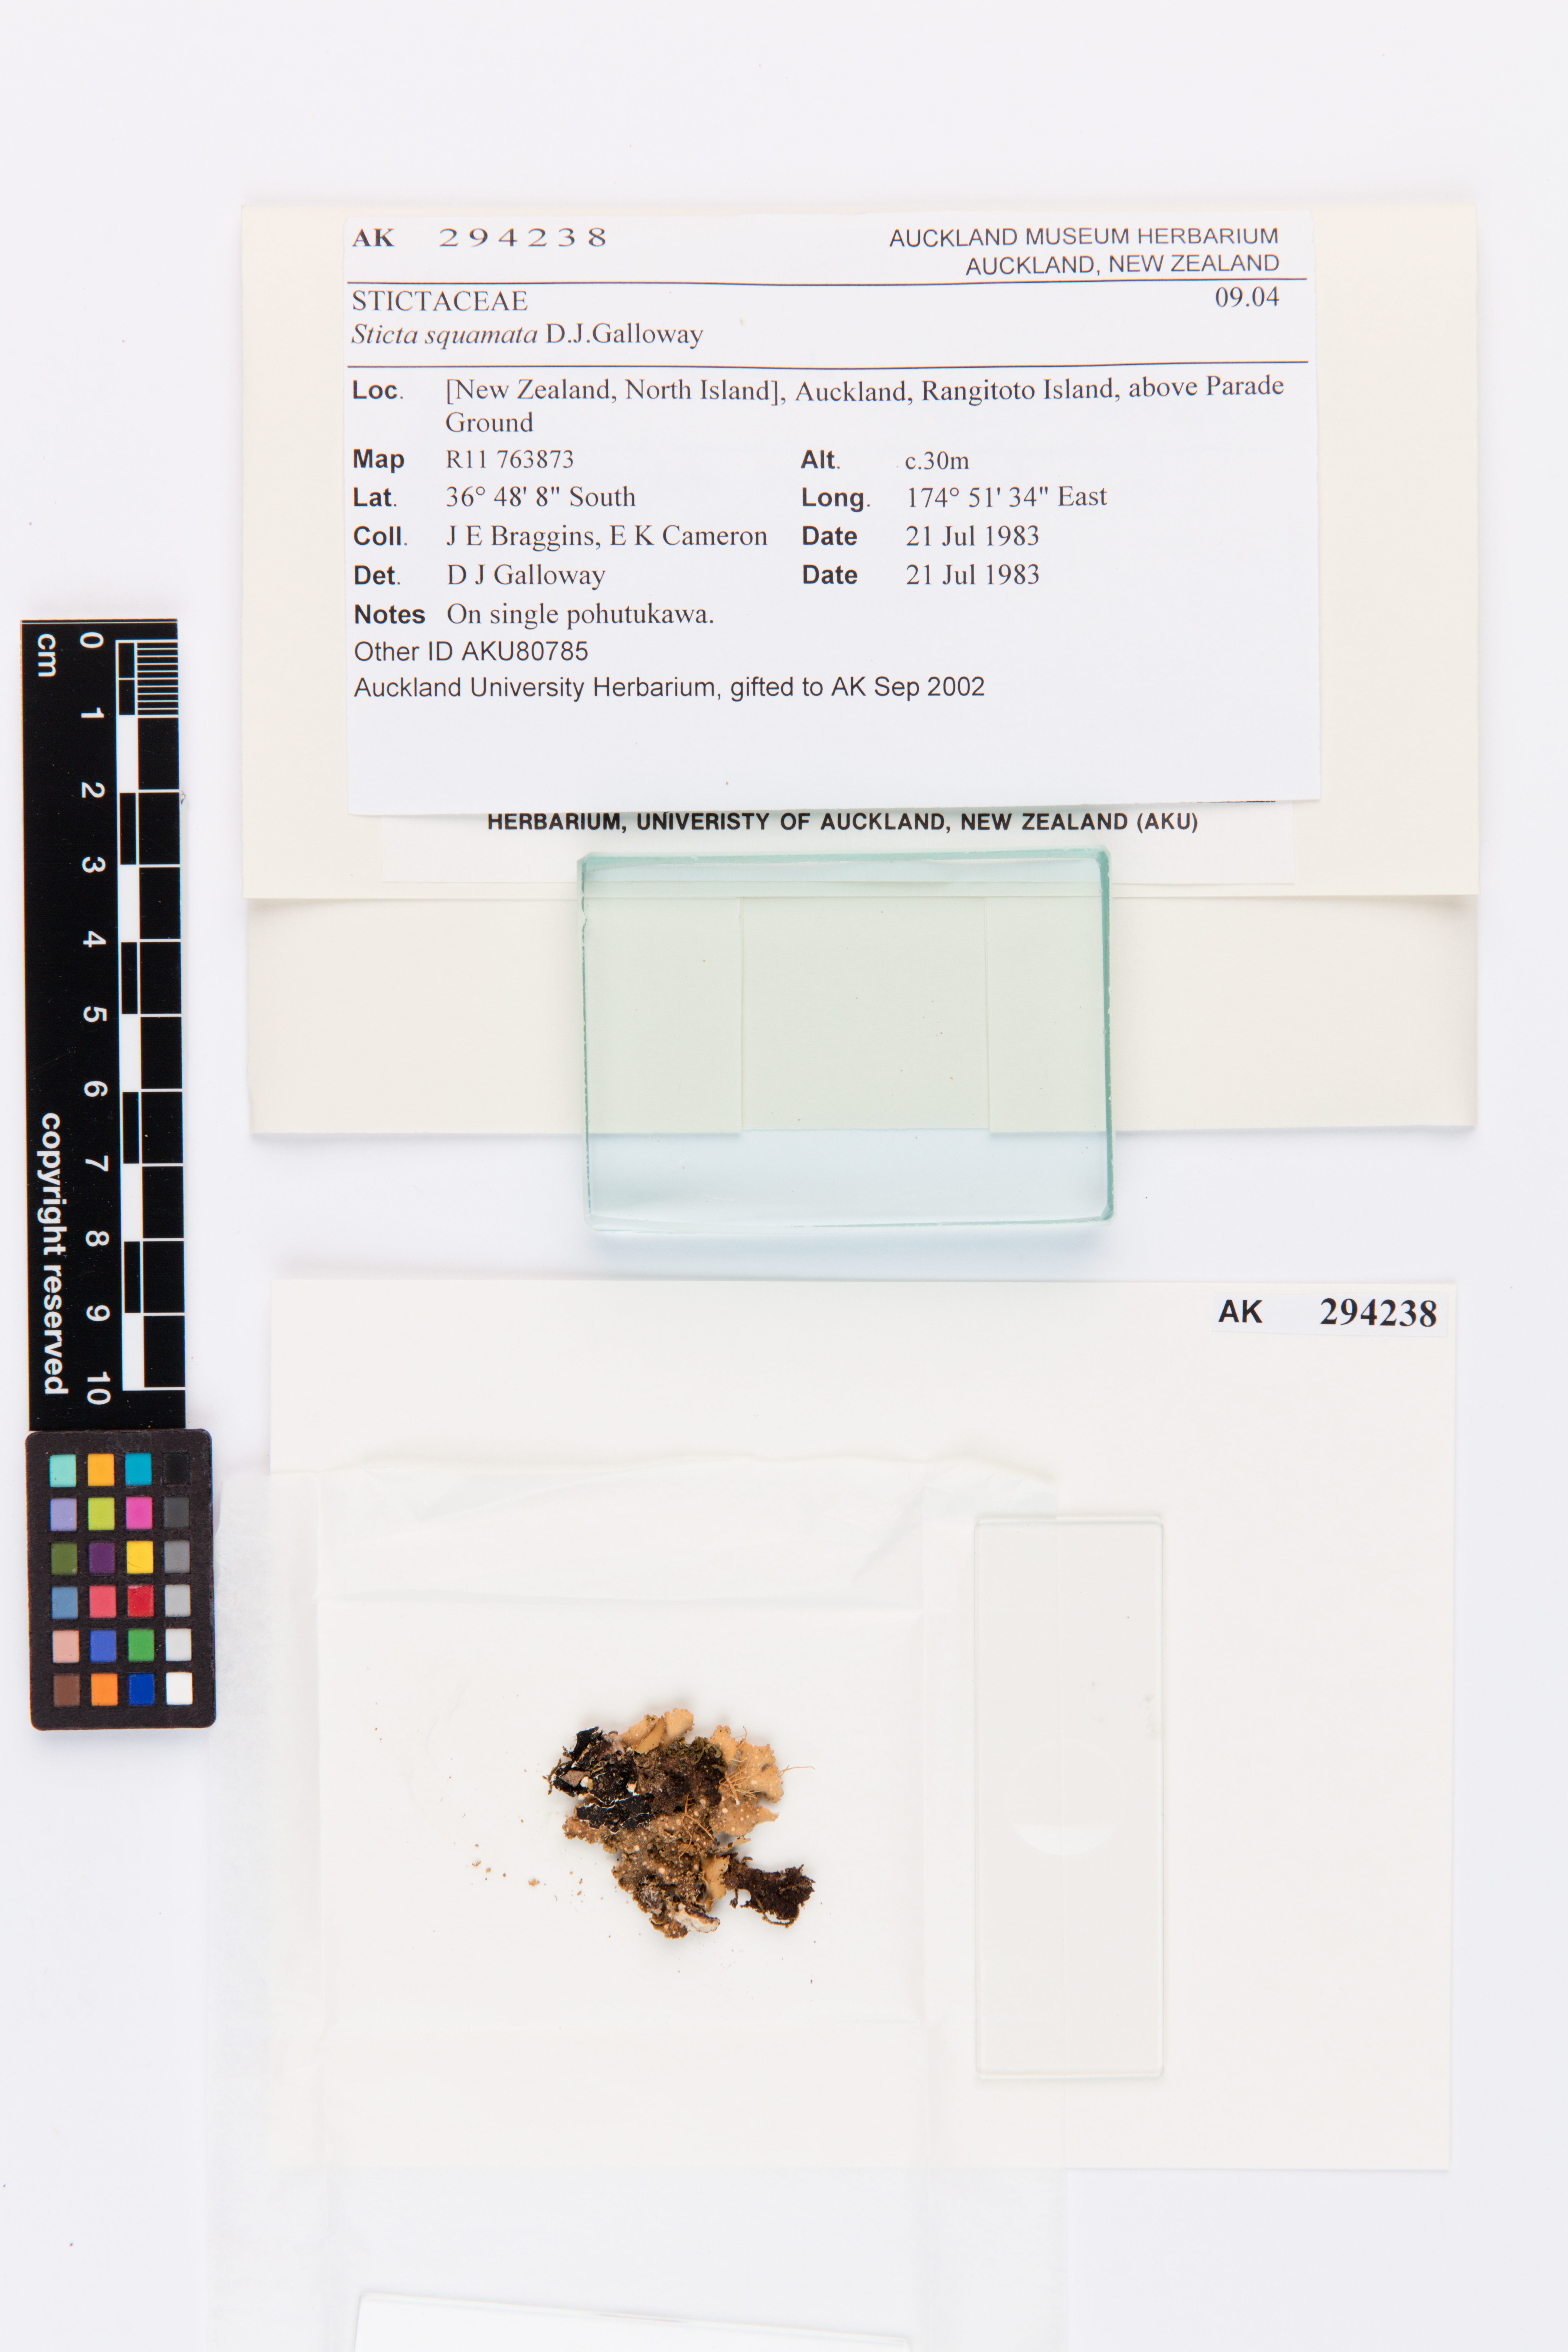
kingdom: Fungi
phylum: Ascomycota
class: Lecanoromycetes
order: Peltigerales
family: Lobariaceae
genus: Sticta
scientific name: Sticta squamata
